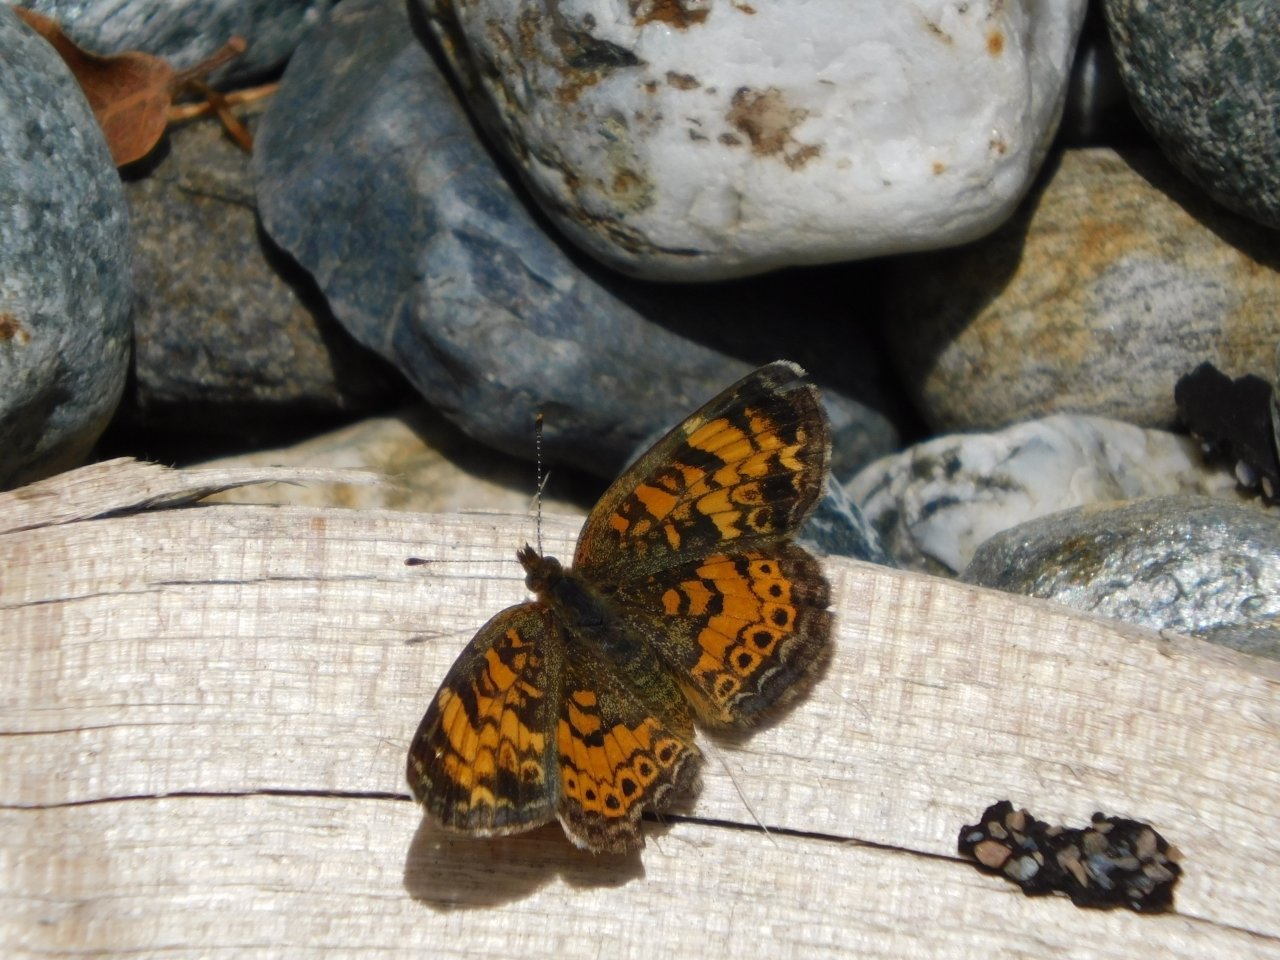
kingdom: Animalia
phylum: Arthropoda
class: Insecta
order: Lepidoptera
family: Nymphalidae
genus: Phyciodes
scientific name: Phyciodes tharos
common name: Pearl Crescent
